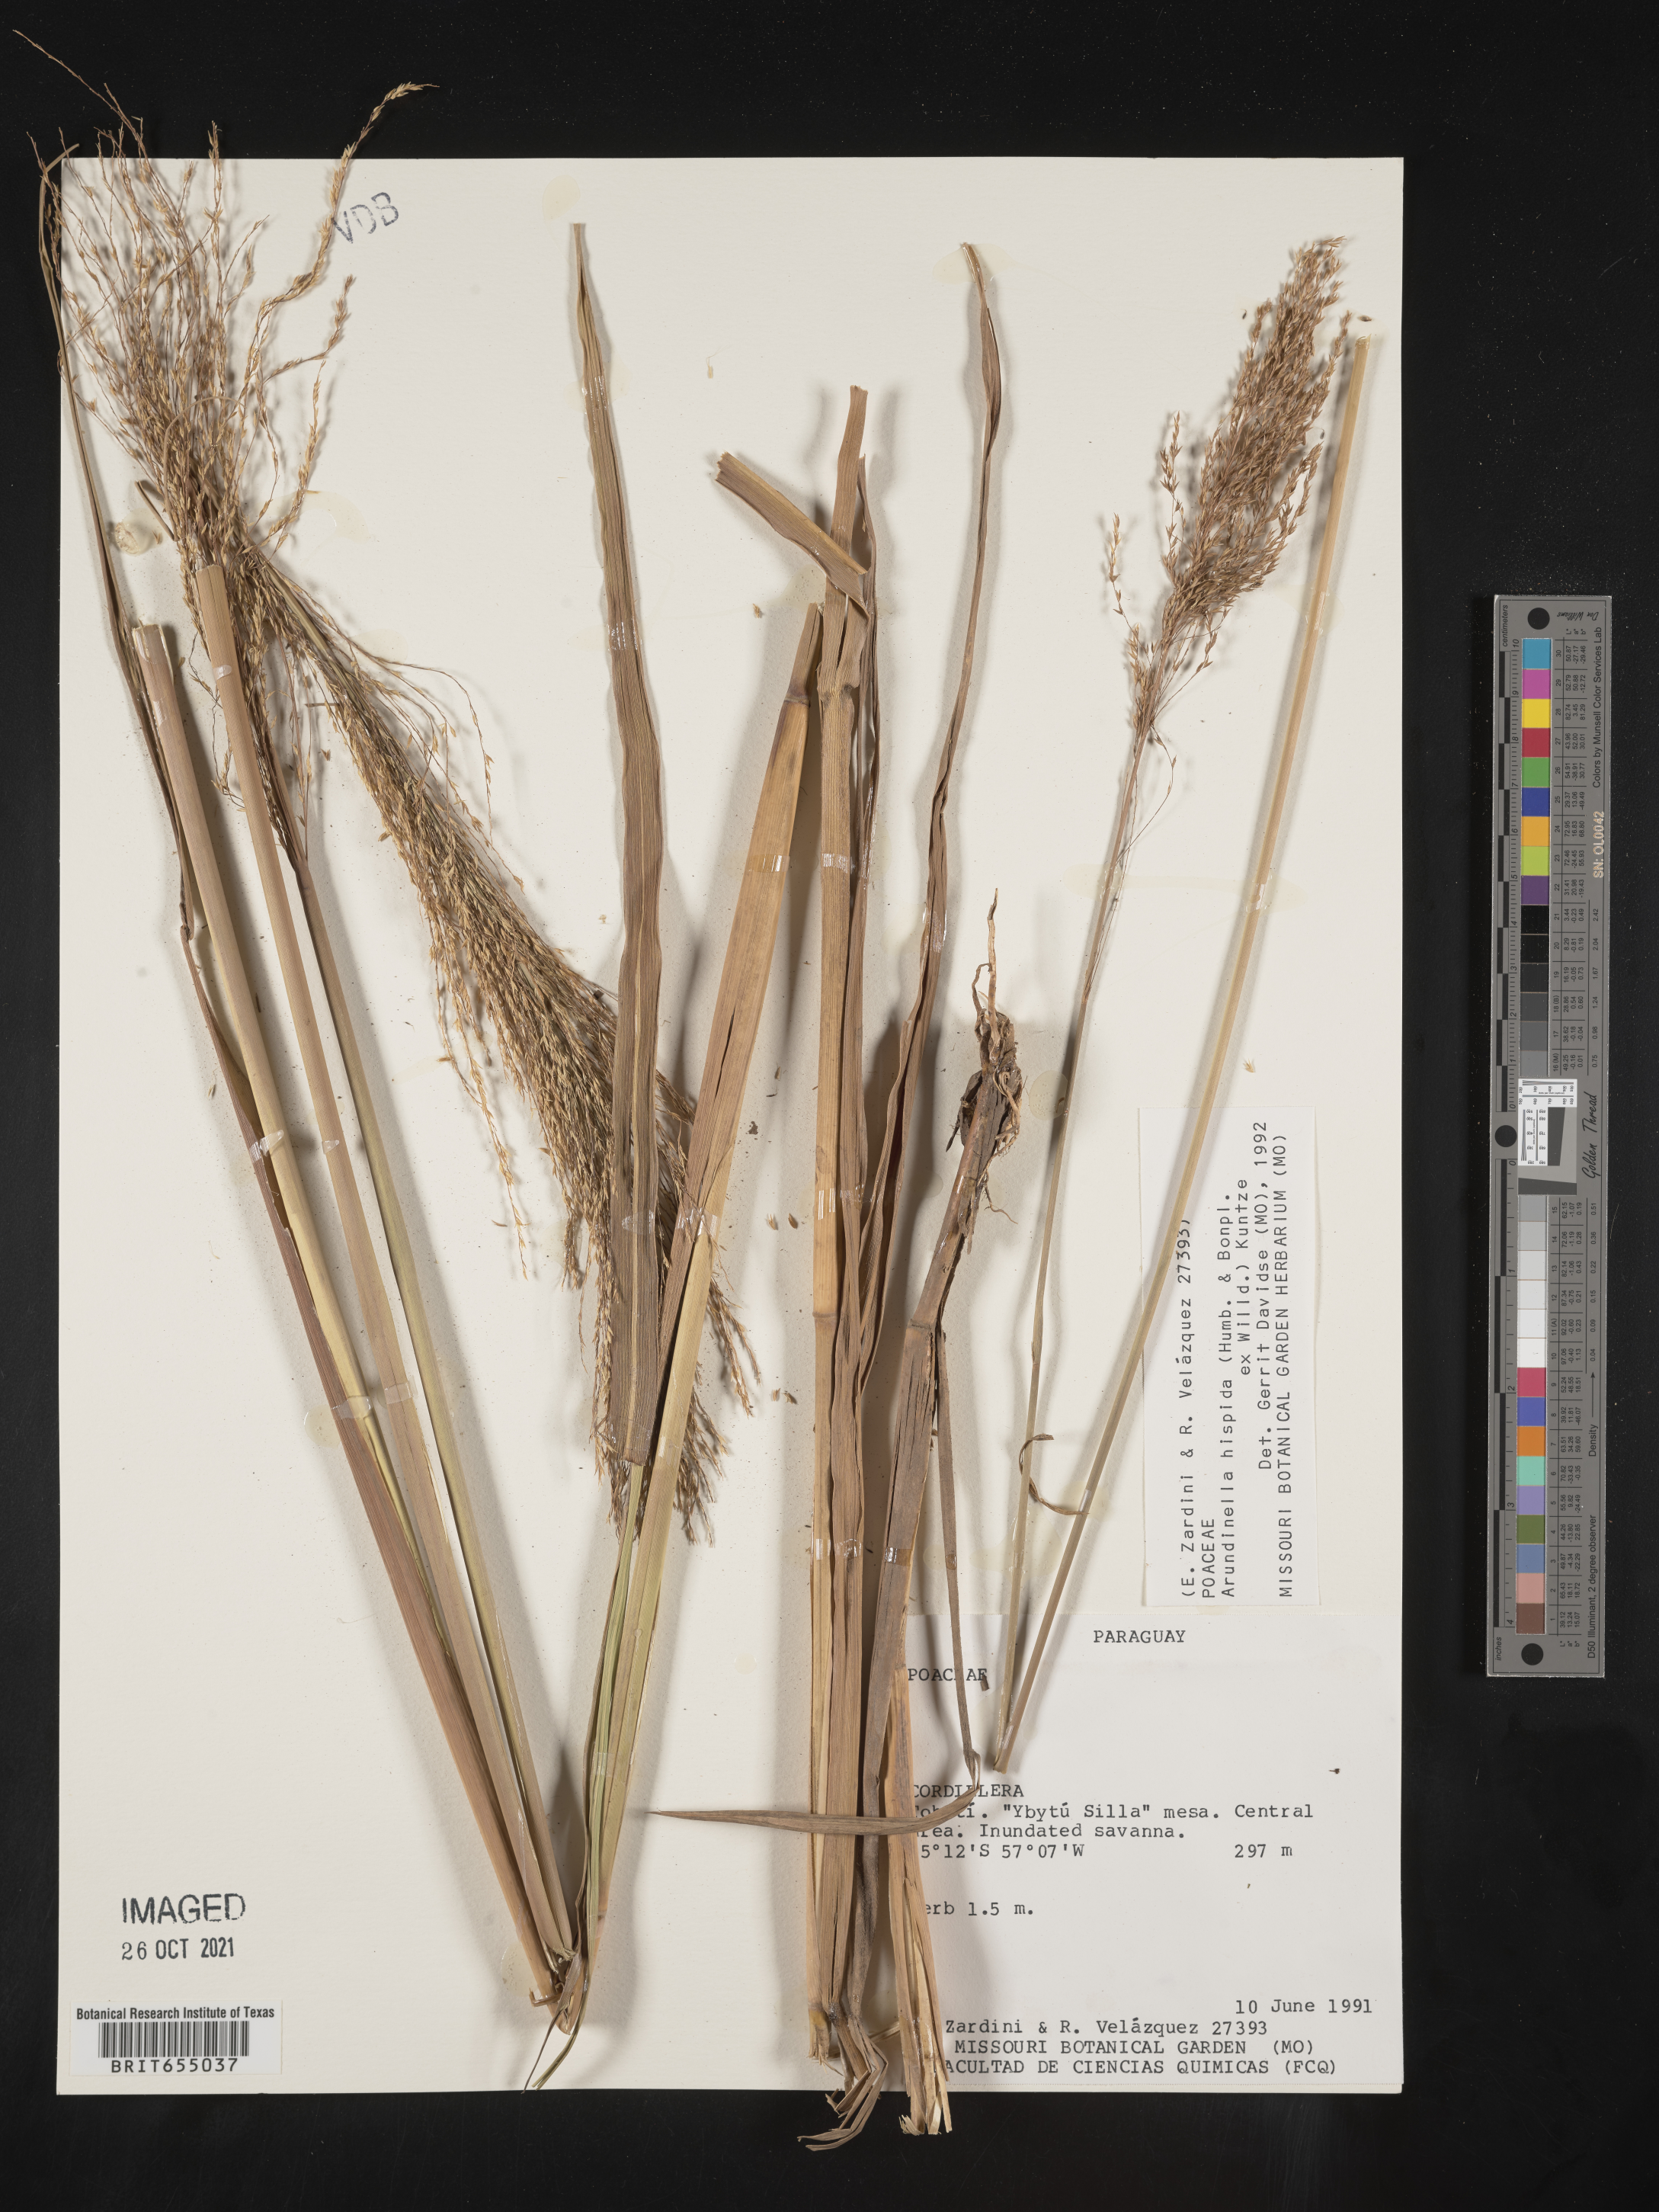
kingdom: Plantae
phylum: Tracheophyta
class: Liliopsida
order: Poales
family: Poaceae
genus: Arundinella
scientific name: Arundinella
